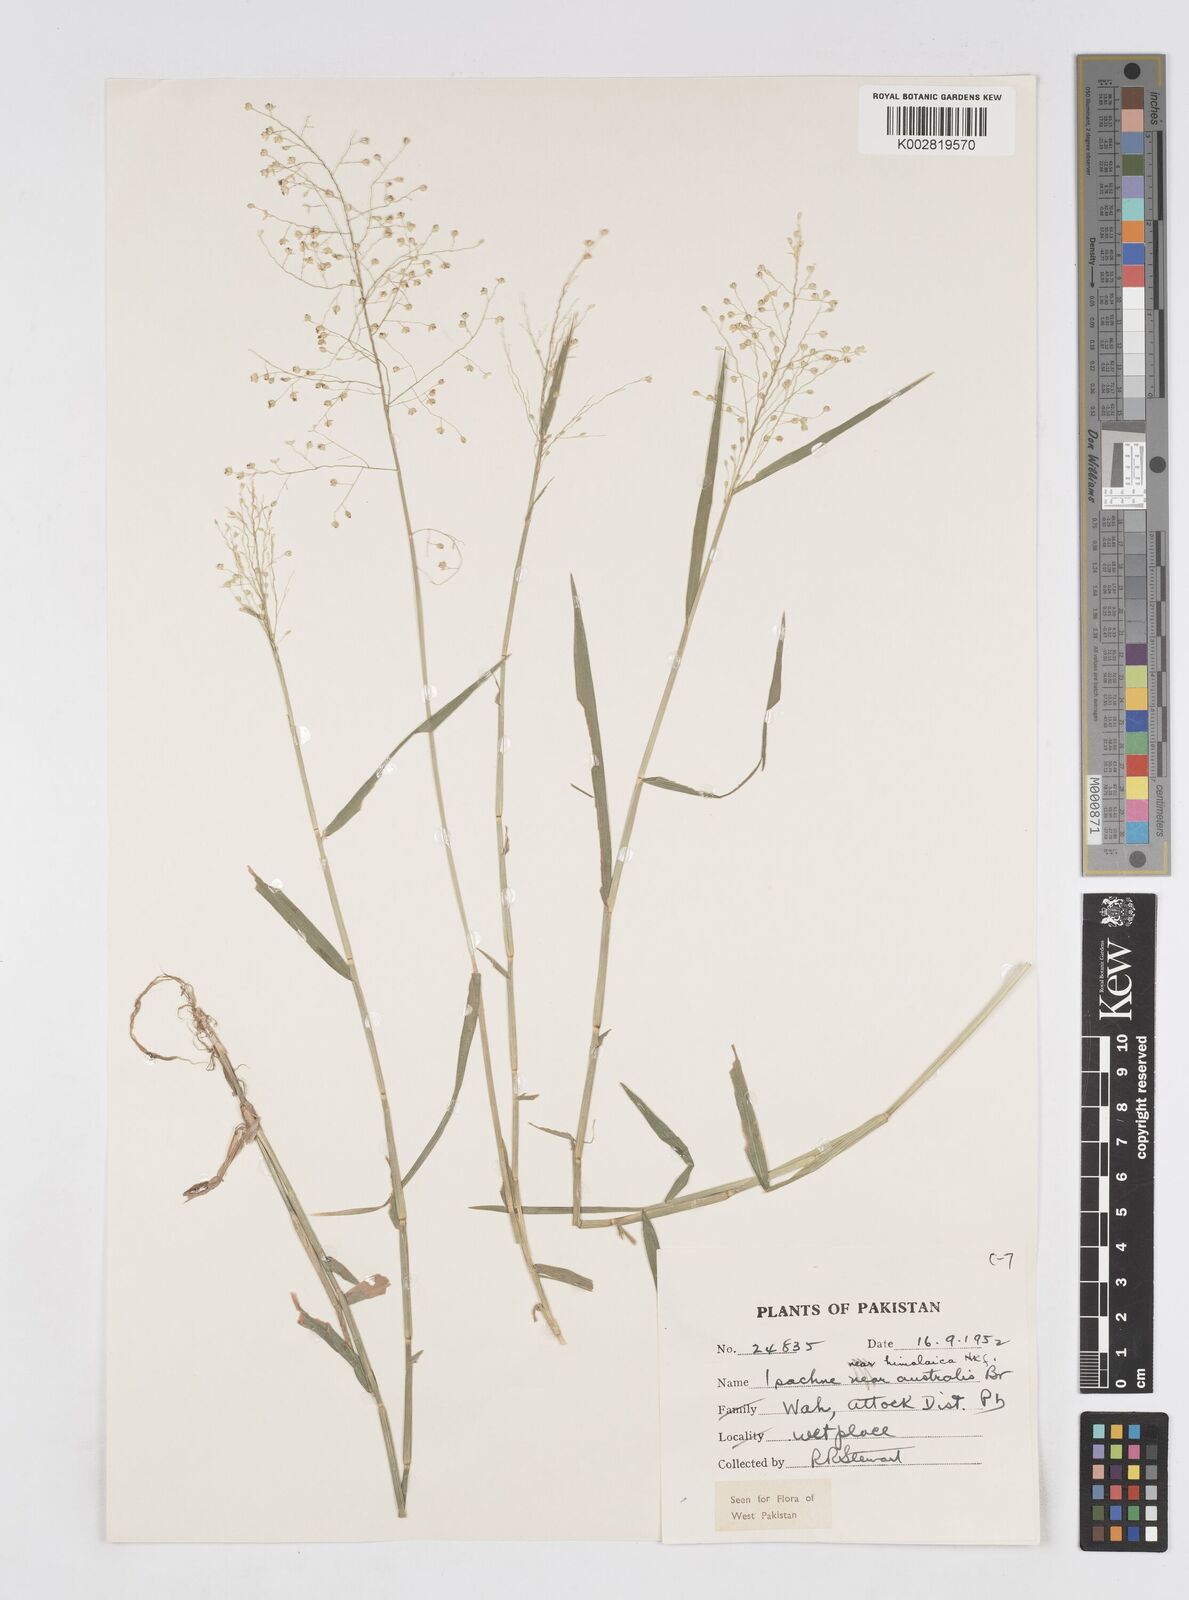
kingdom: Plantae
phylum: Tracheophyta
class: Liliopsida
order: Poales
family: Poaceae
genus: Isachne
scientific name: Isachne himalaica
